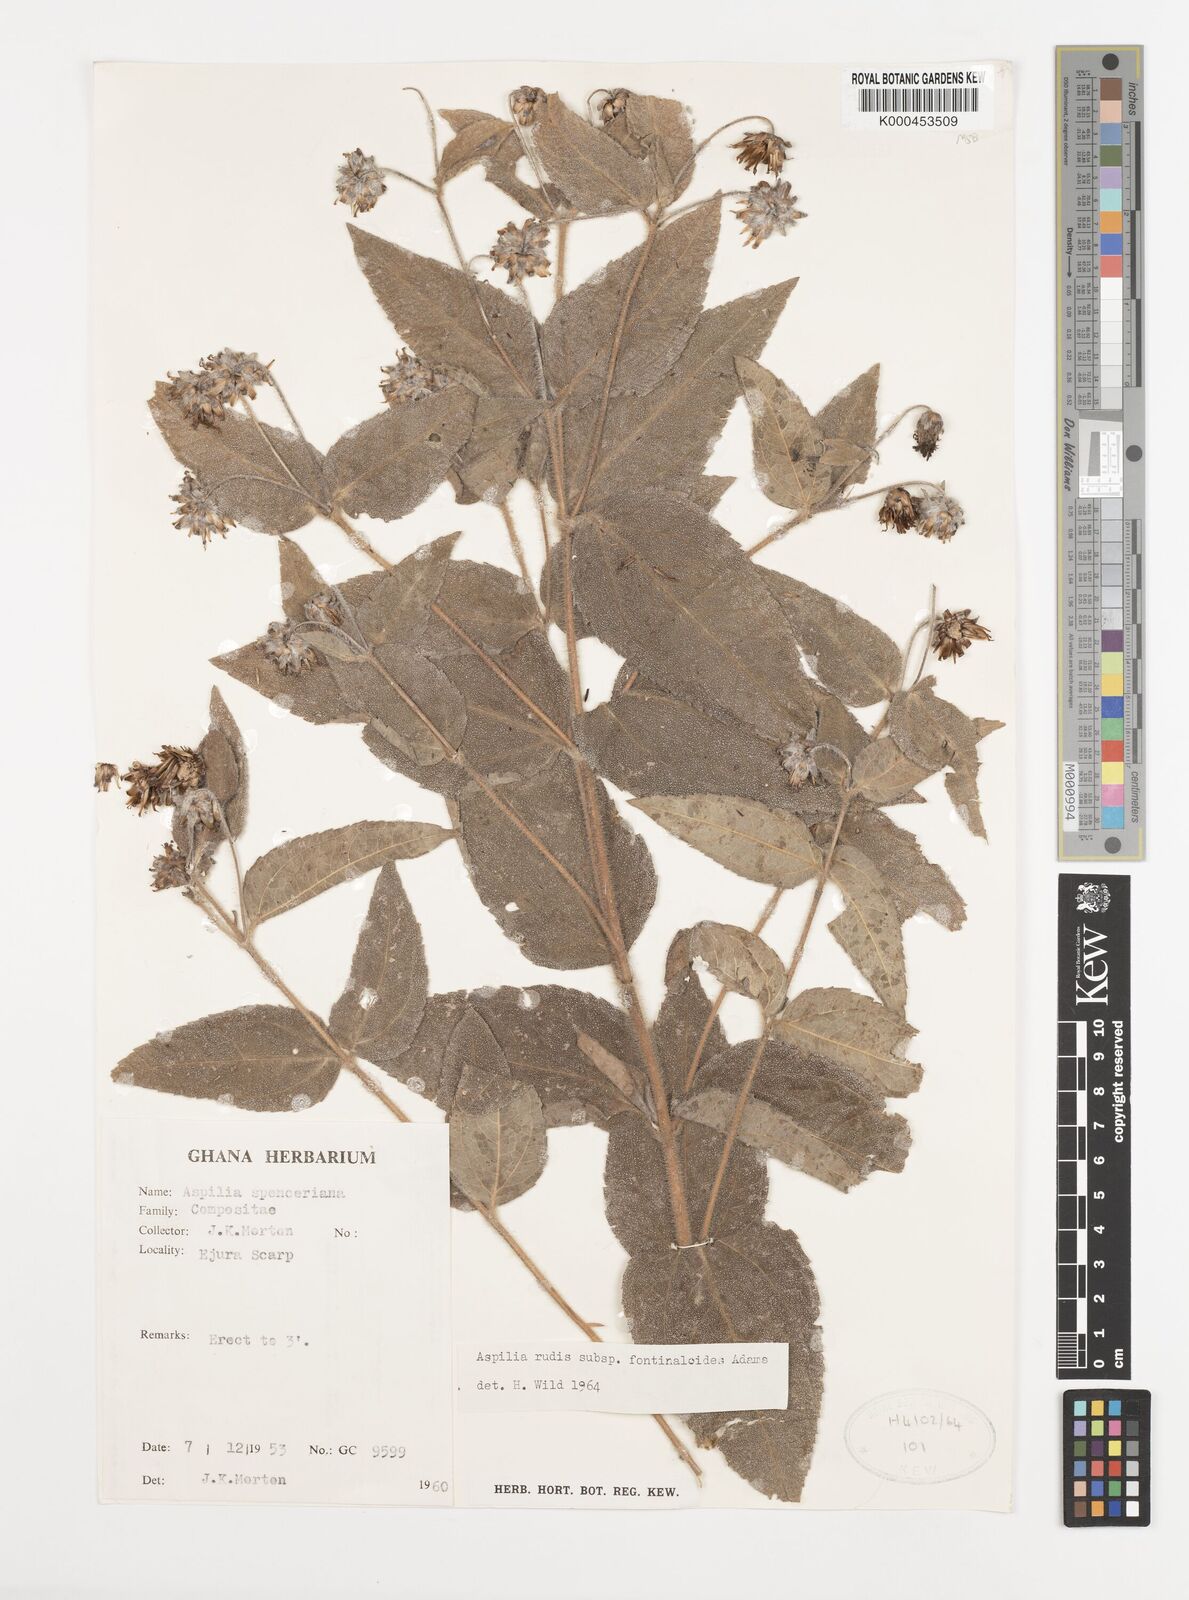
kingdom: Plantae
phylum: Tracheophyta
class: Magnoliopsida
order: Asterales
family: Asteraceae
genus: Aspilia
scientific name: Aspilia rudis
